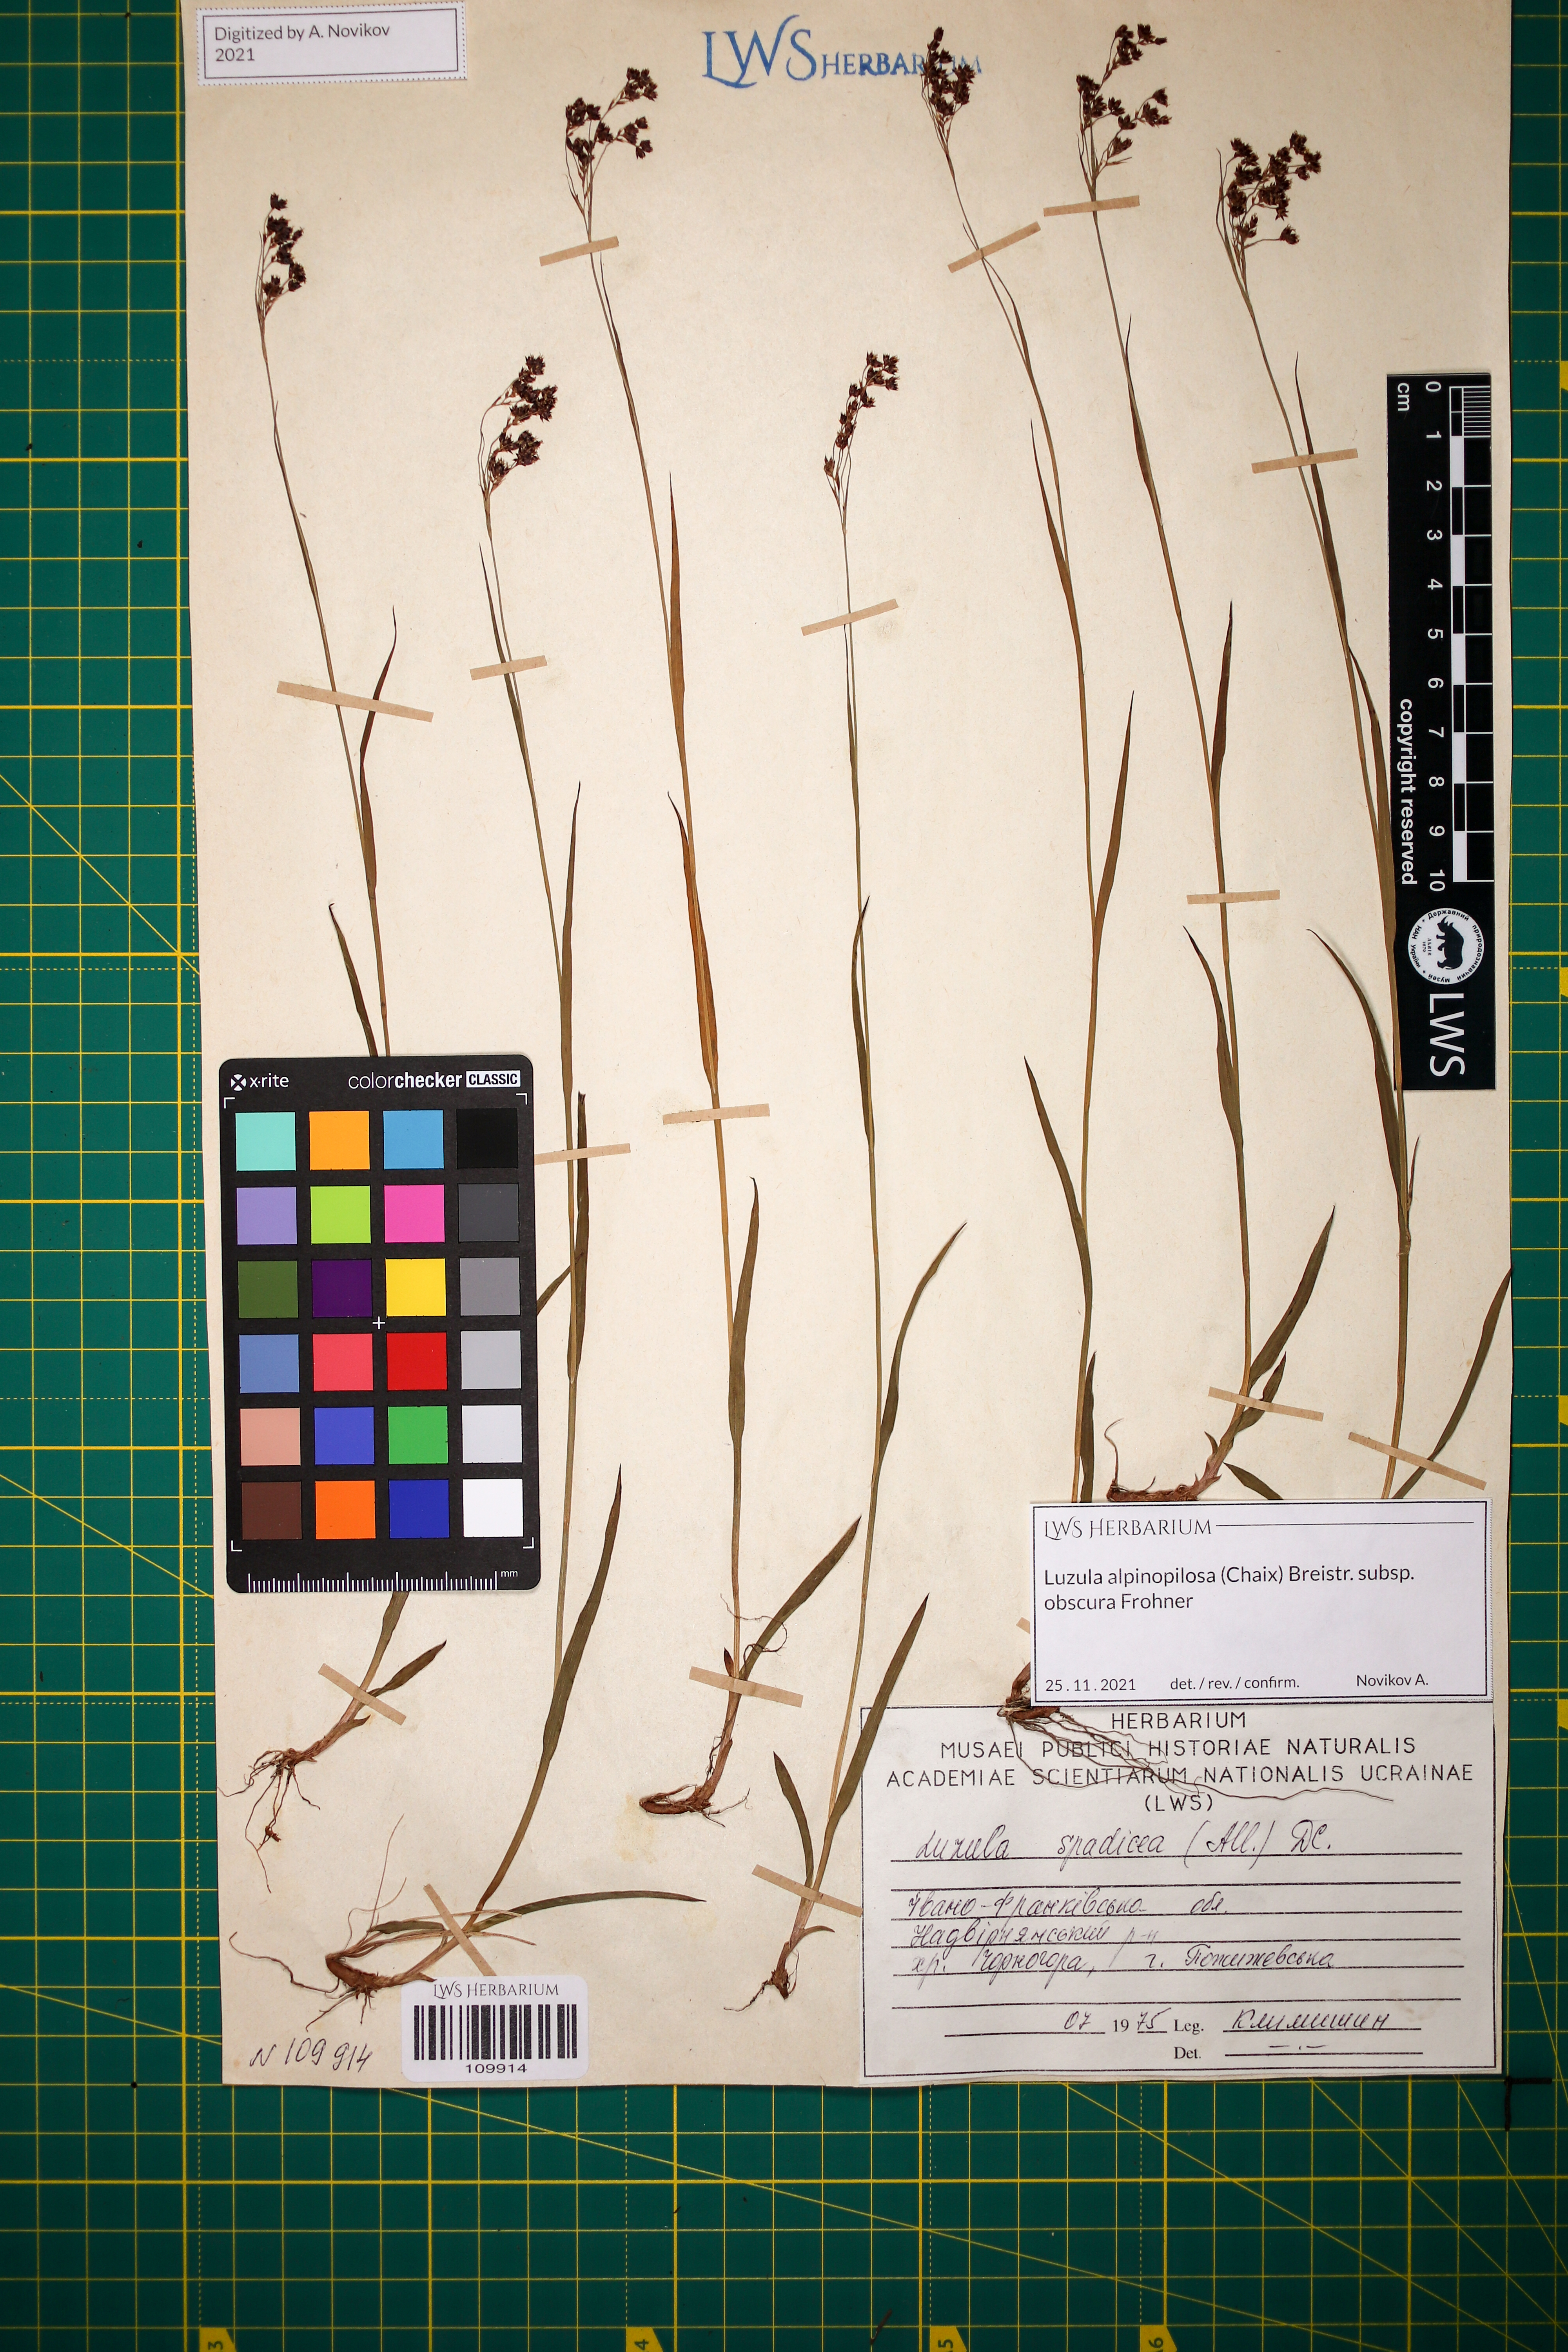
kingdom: Plantae
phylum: Tracheophyta
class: Liliopsida
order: Poales
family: Juncaceae
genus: Luzula
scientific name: Luzula alpinopilosa
